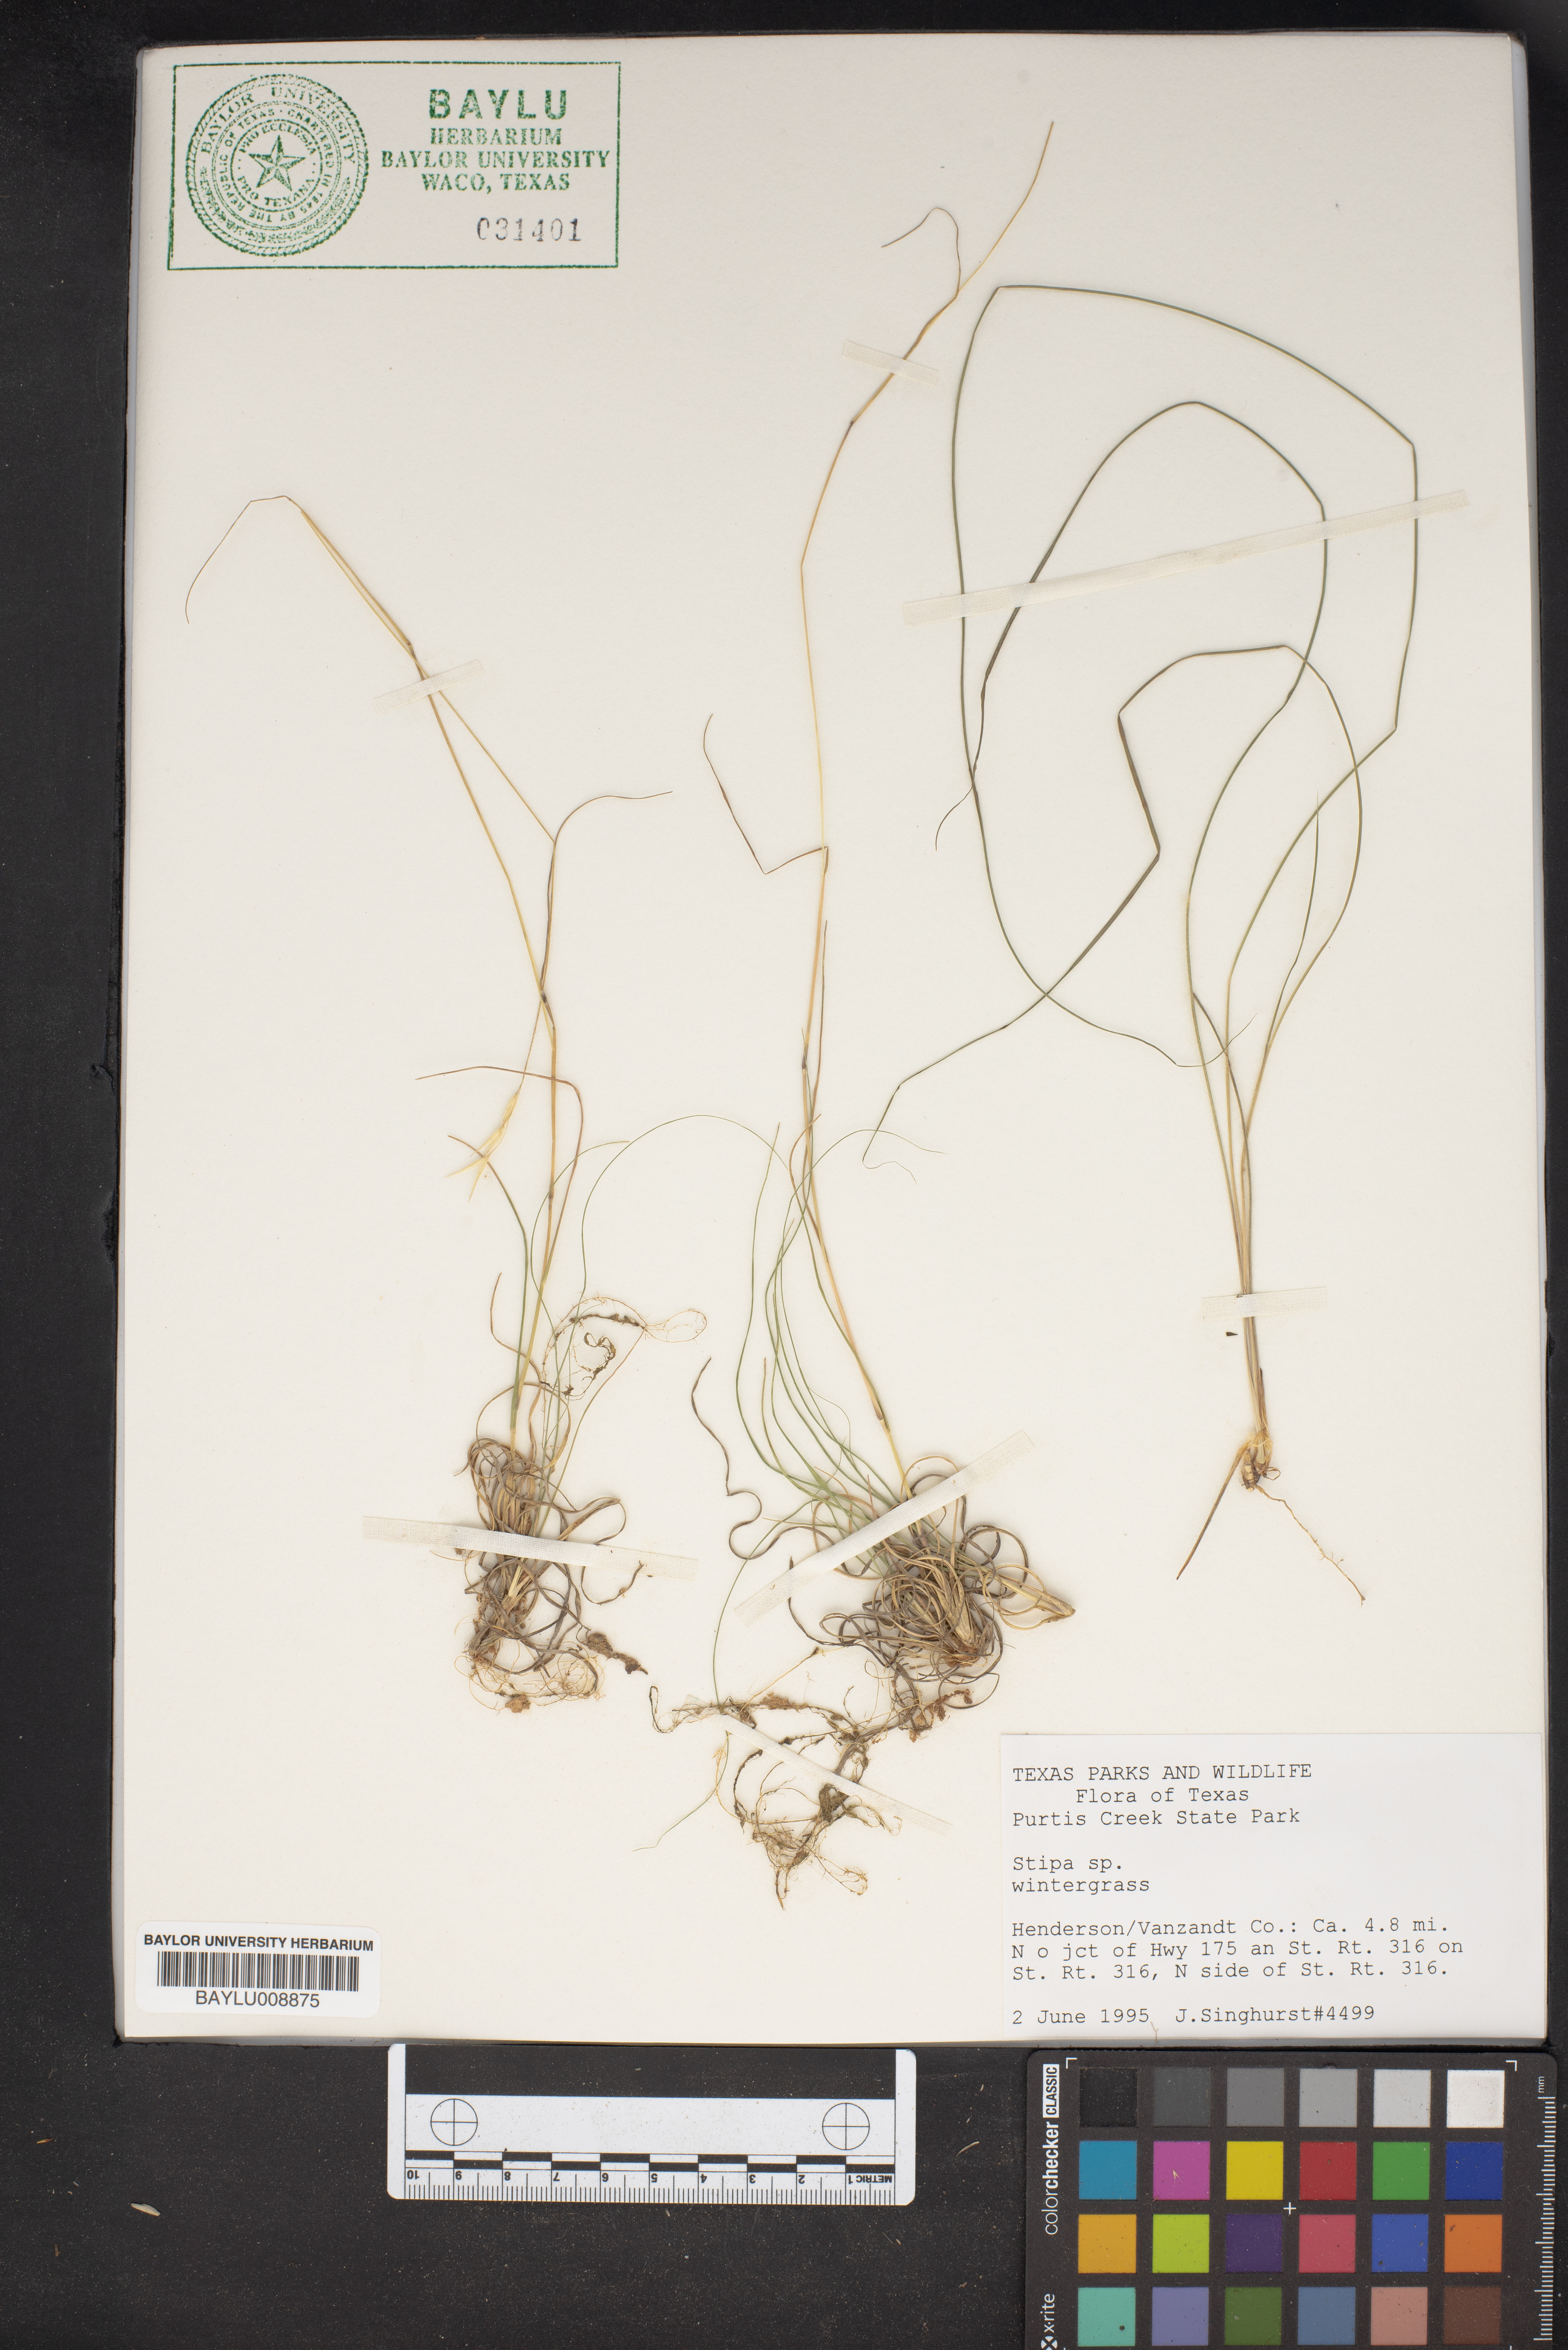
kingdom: Plantae
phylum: Tracheophyta
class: Liliopsida
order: Poales
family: Poaceae
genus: Stipa
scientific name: Stipa
